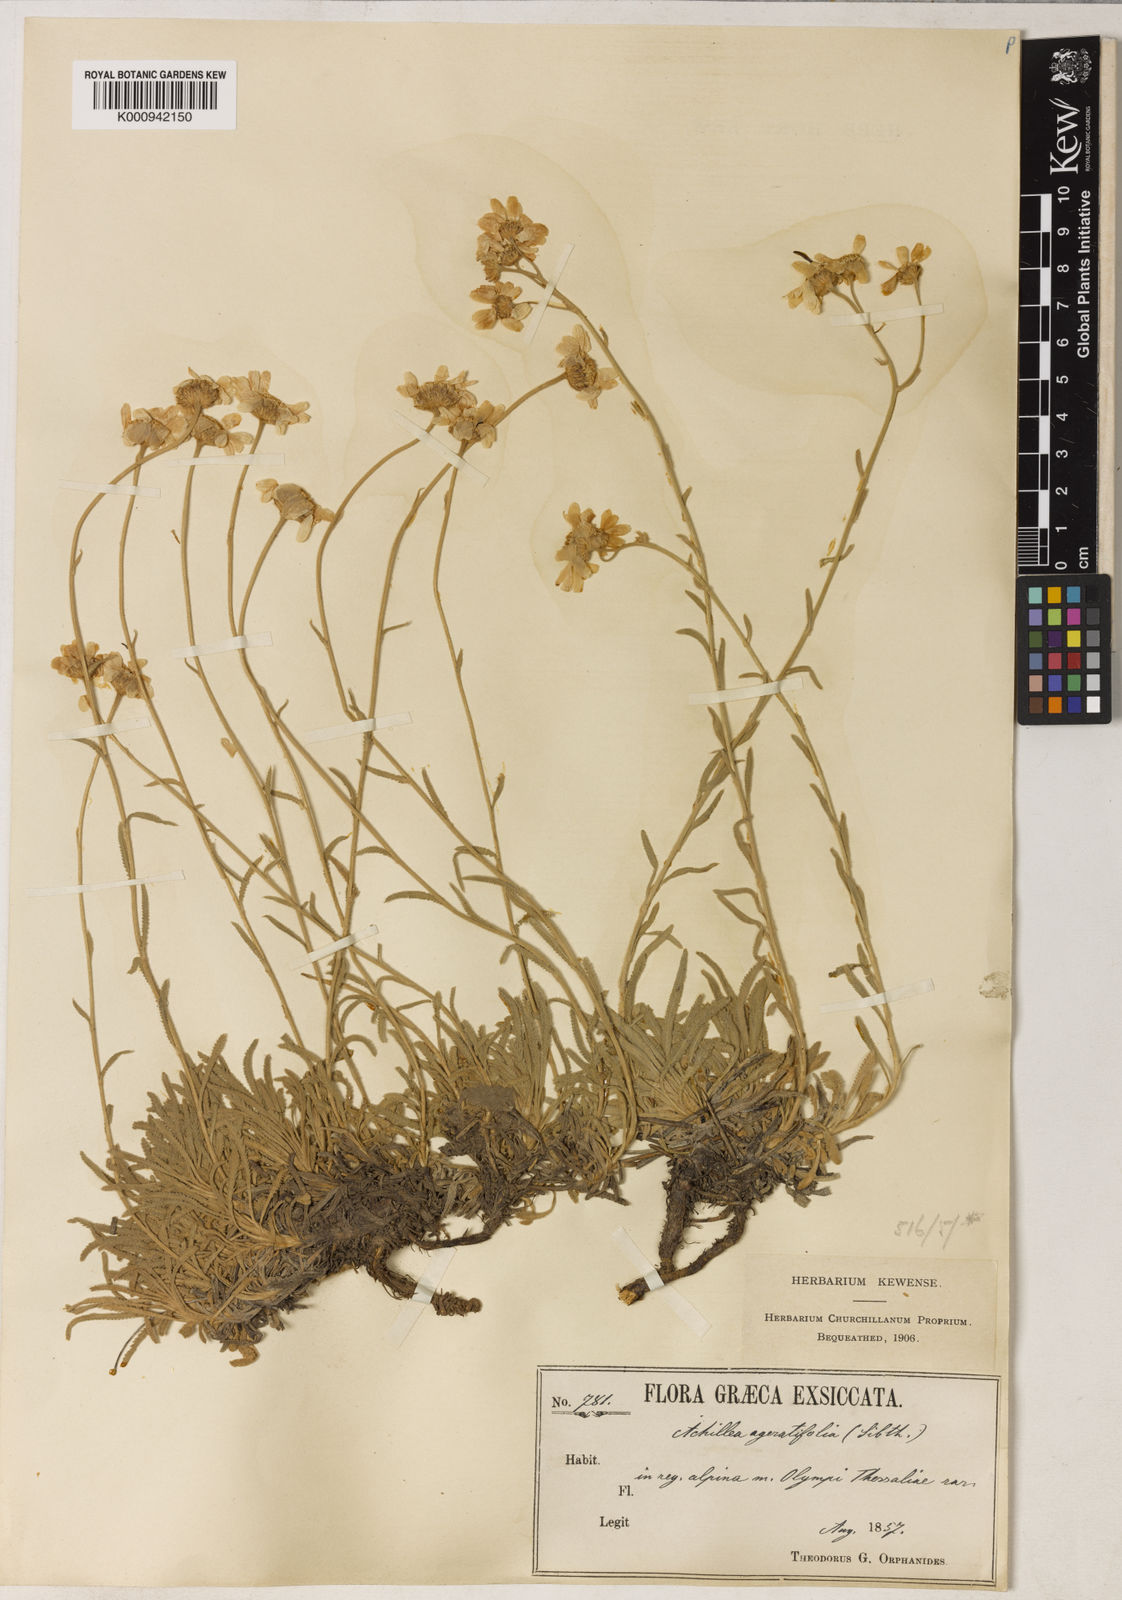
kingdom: Plantae
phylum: Tracheophyta
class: Magnoliopsida
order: Asterales
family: Asteraceae
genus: Achillea
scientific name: Achillea
